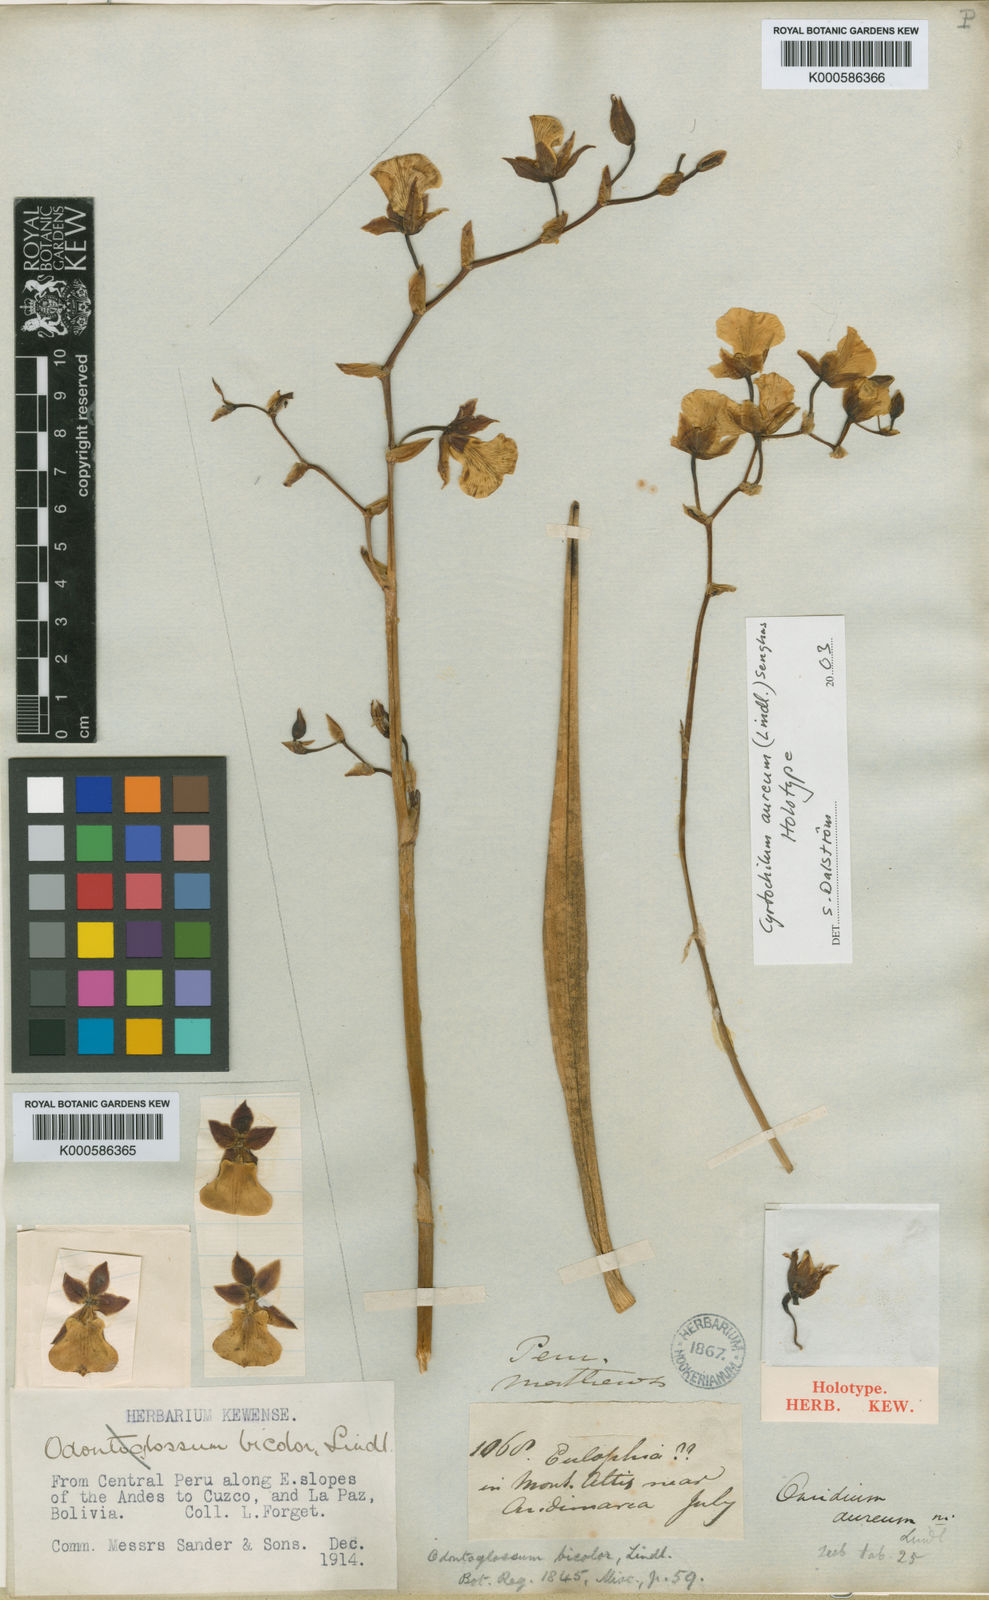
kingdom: Plantae
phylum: Tracheophyta
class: Liliopsida
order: Asparagales
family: Orchidaceae
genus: Cyrtochilum
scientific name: Cyrtochilum aureum
